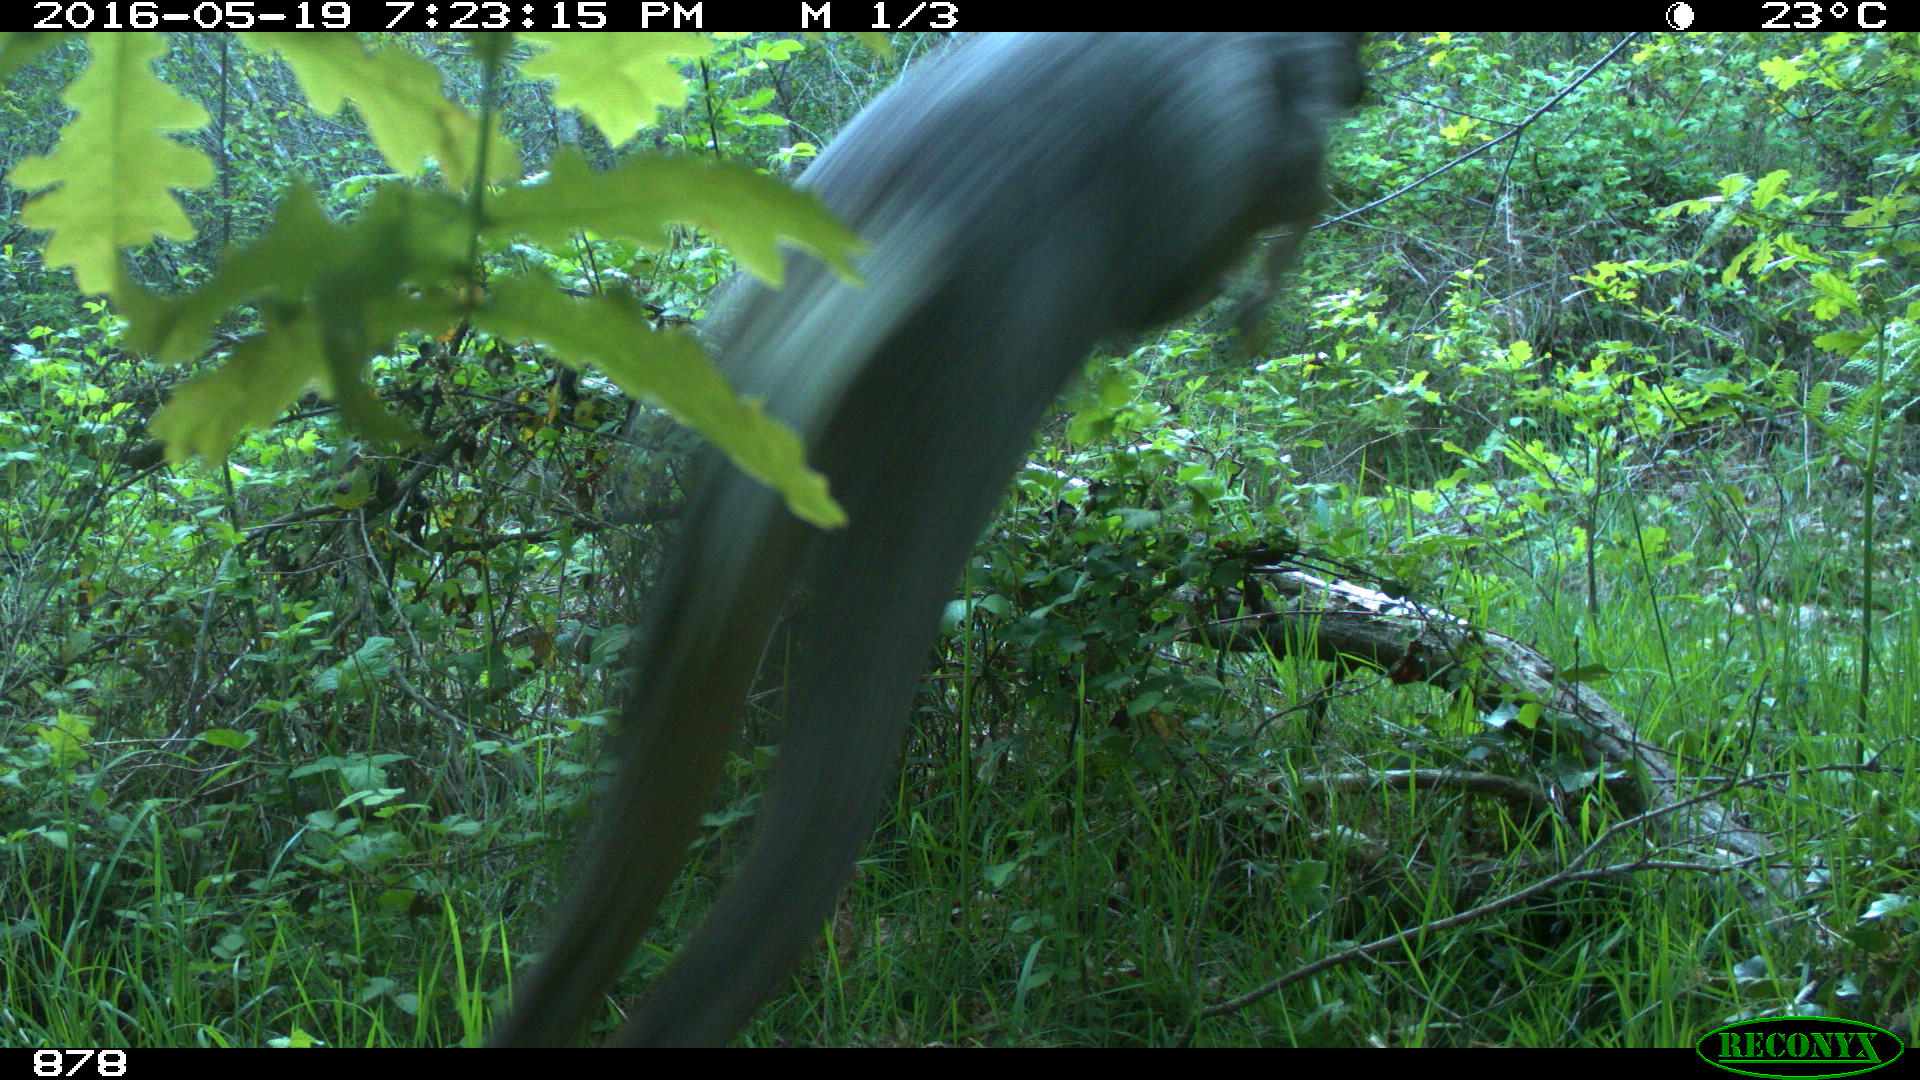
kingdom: Animalia
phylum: Chordata
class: Mammalia
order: Artiodactyla
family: Cervidae
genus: Capreolus
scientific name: Capreolus capreolus
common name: Western roe deer
